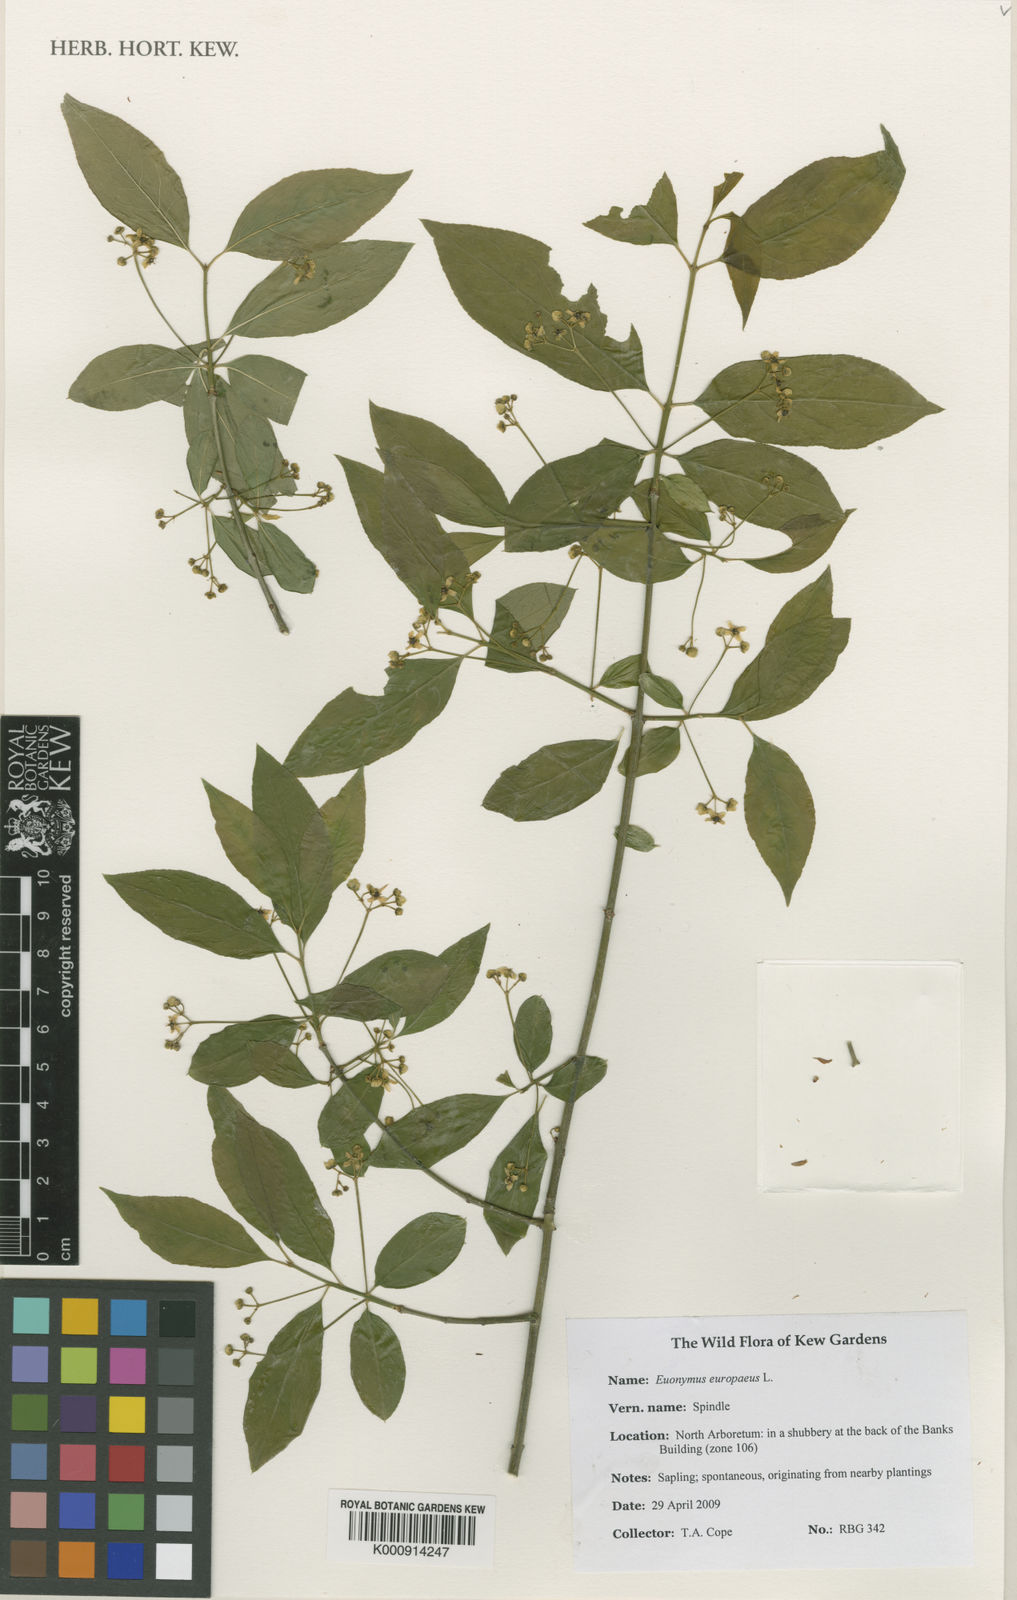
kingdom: Plantae
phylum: Tracheophyta
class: Magnoliopsida
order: Celastrales
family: Celastraceae
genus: Euonymus
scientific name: Euonymus europaeus
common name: Spindle
